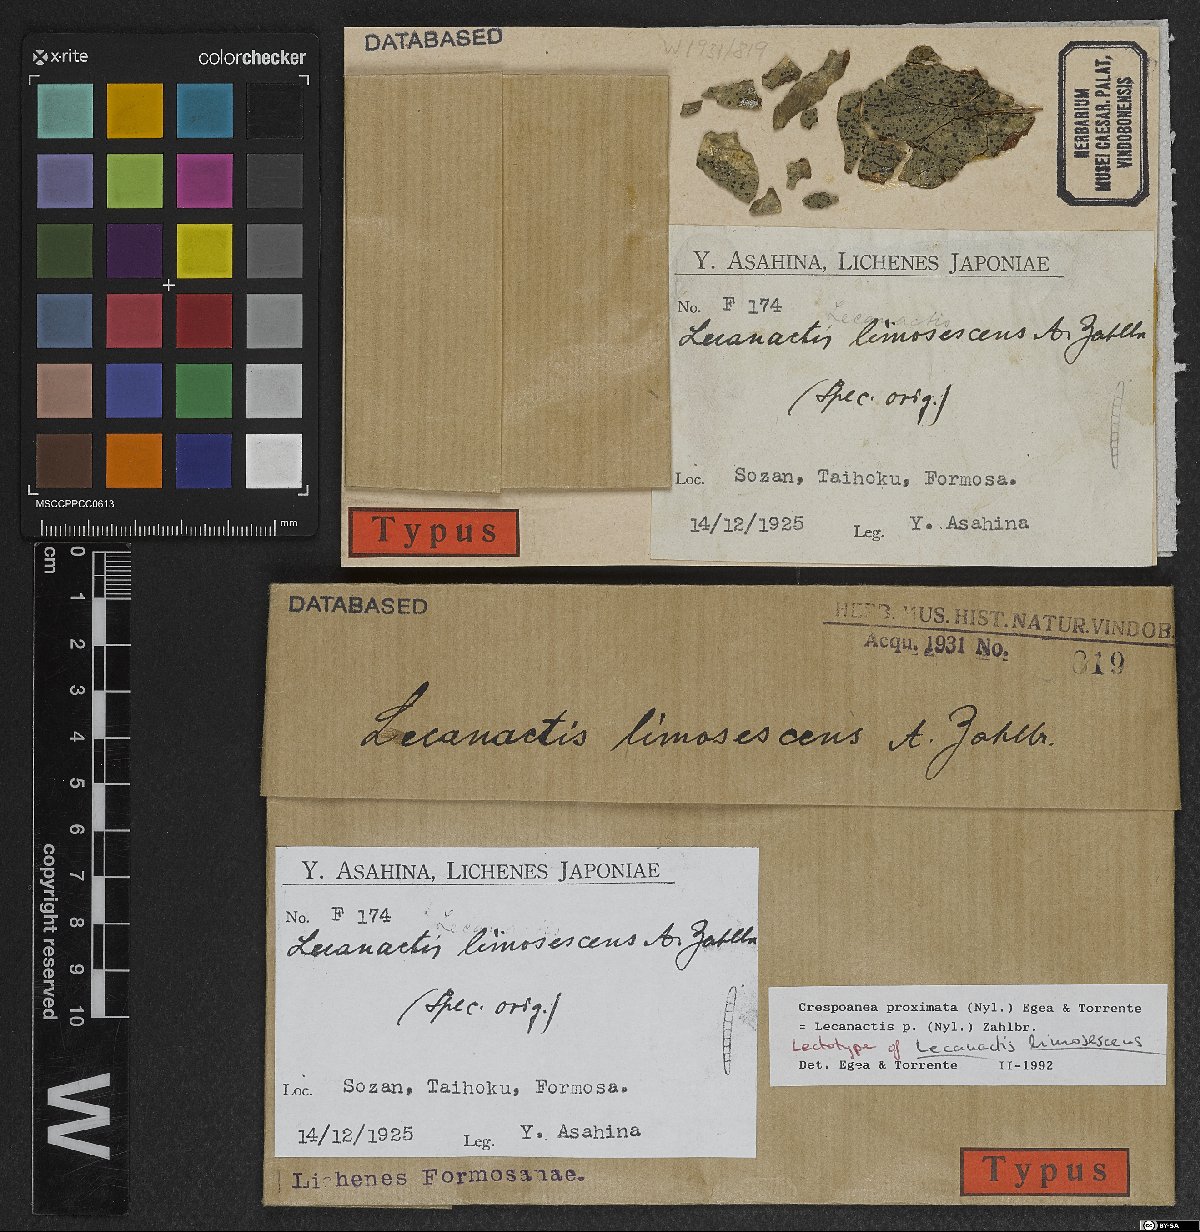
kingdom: Fungi
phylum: Ascomycota
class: Arthoniomycetes
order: Arthoniales
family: Opegraphaceae
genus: Cresponea
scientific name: Cresponea proximata
